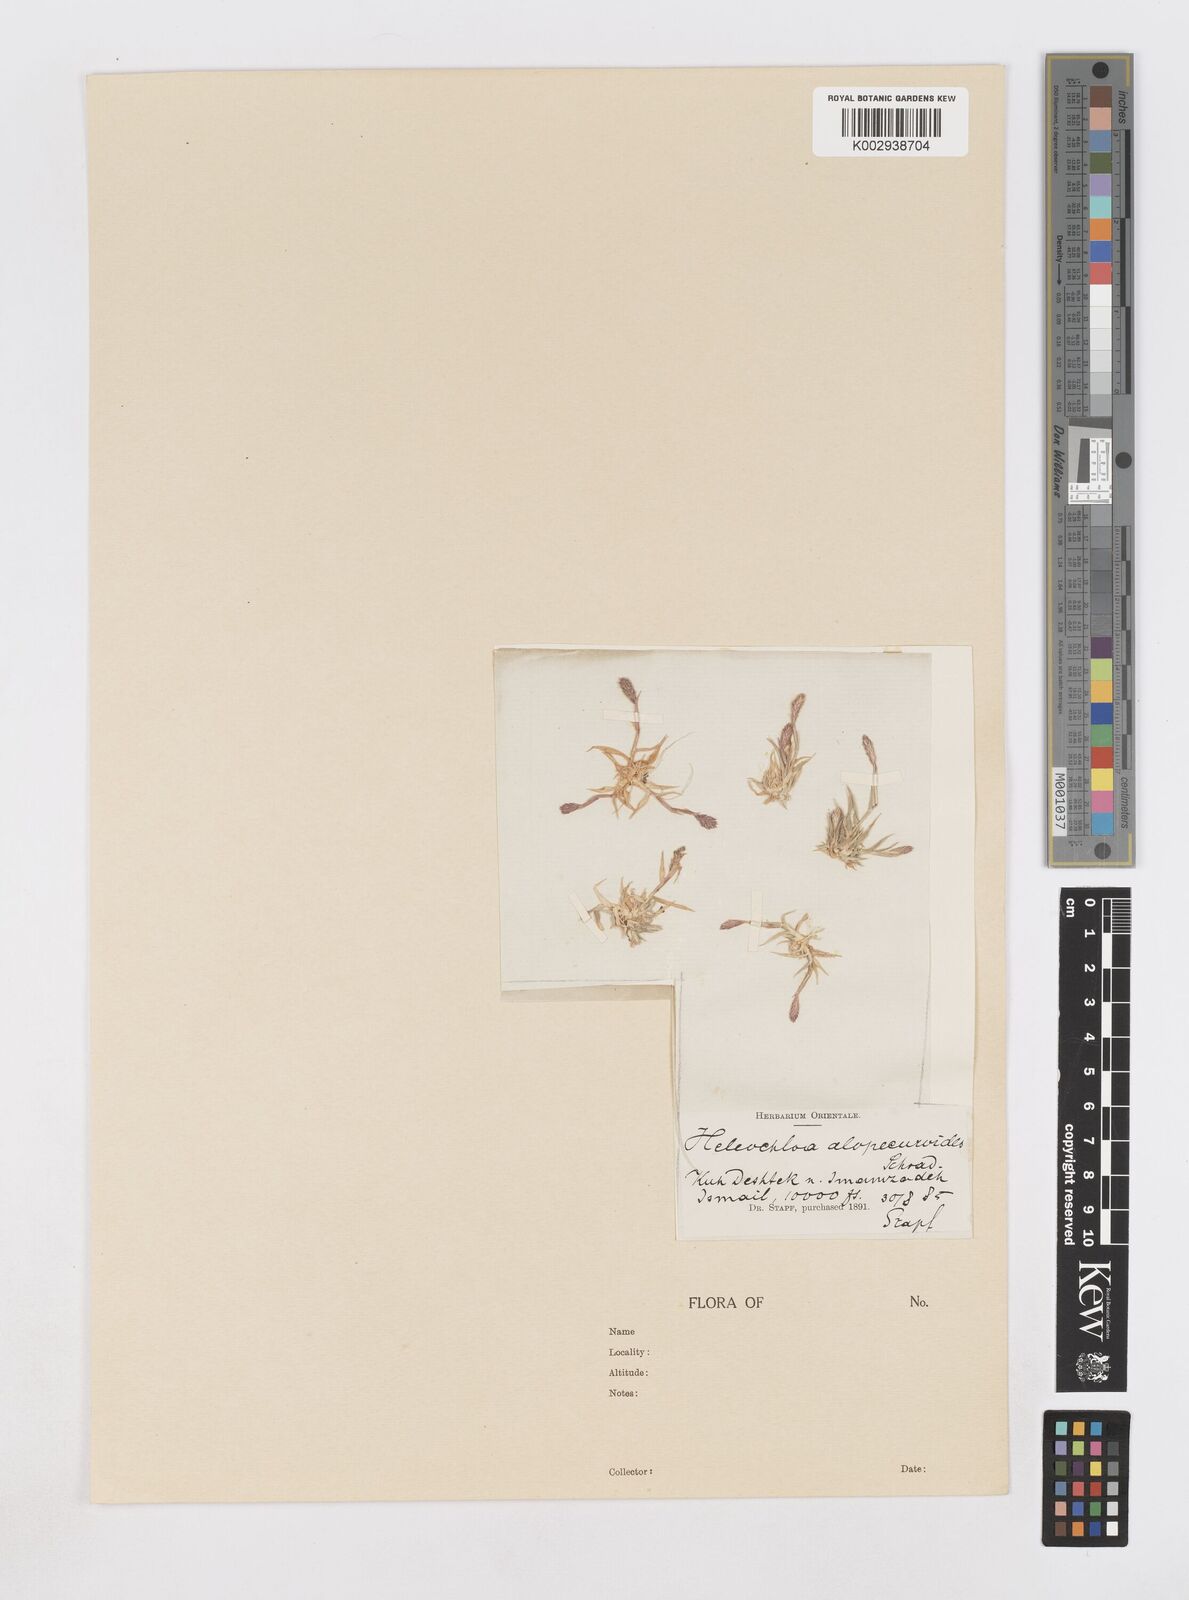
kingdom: Plantae
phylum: Tracheophyta
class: Liliopsida
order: Poales
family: Poaceae
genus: Sporobolus
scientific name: Sporobolus alopecuroides
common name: Foxtail pricklegrass
